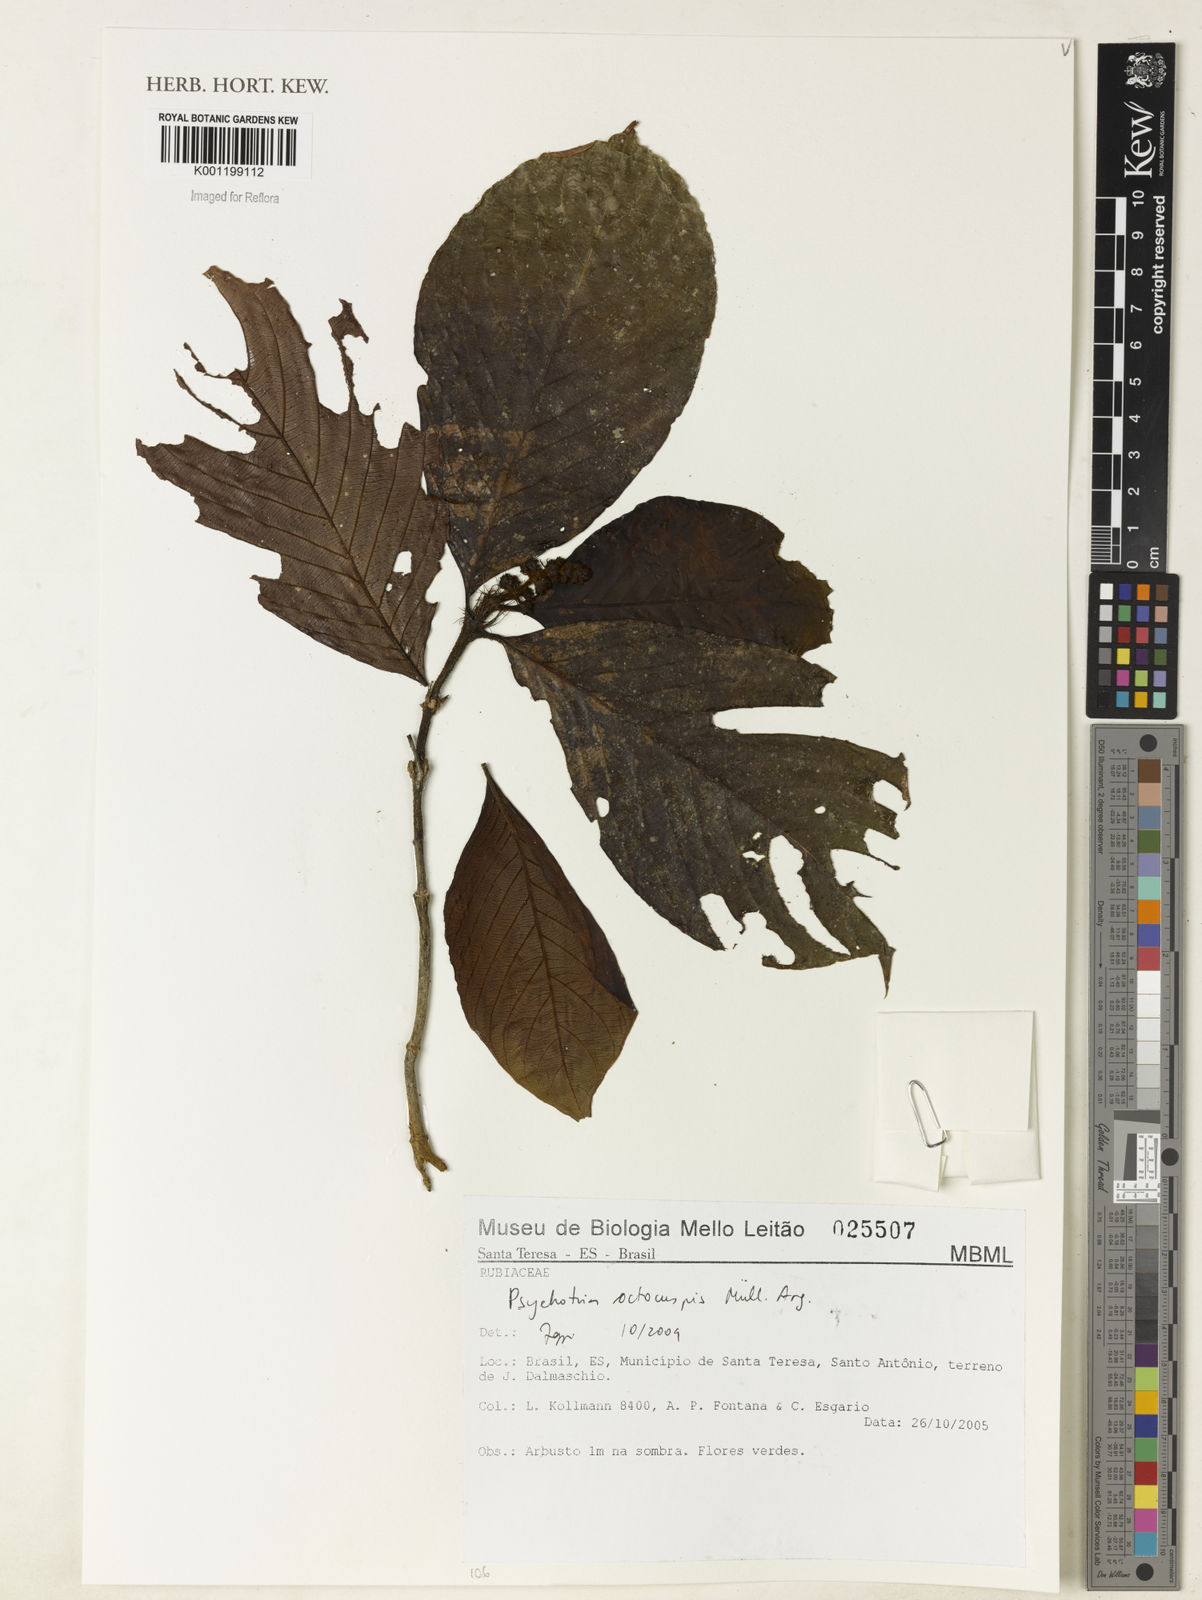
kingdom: Plantae
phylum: Tracheophyta
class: Magnoliopsida
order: Gentianales
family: Rubiaceae
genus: Psychotria
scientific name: Psychotria
